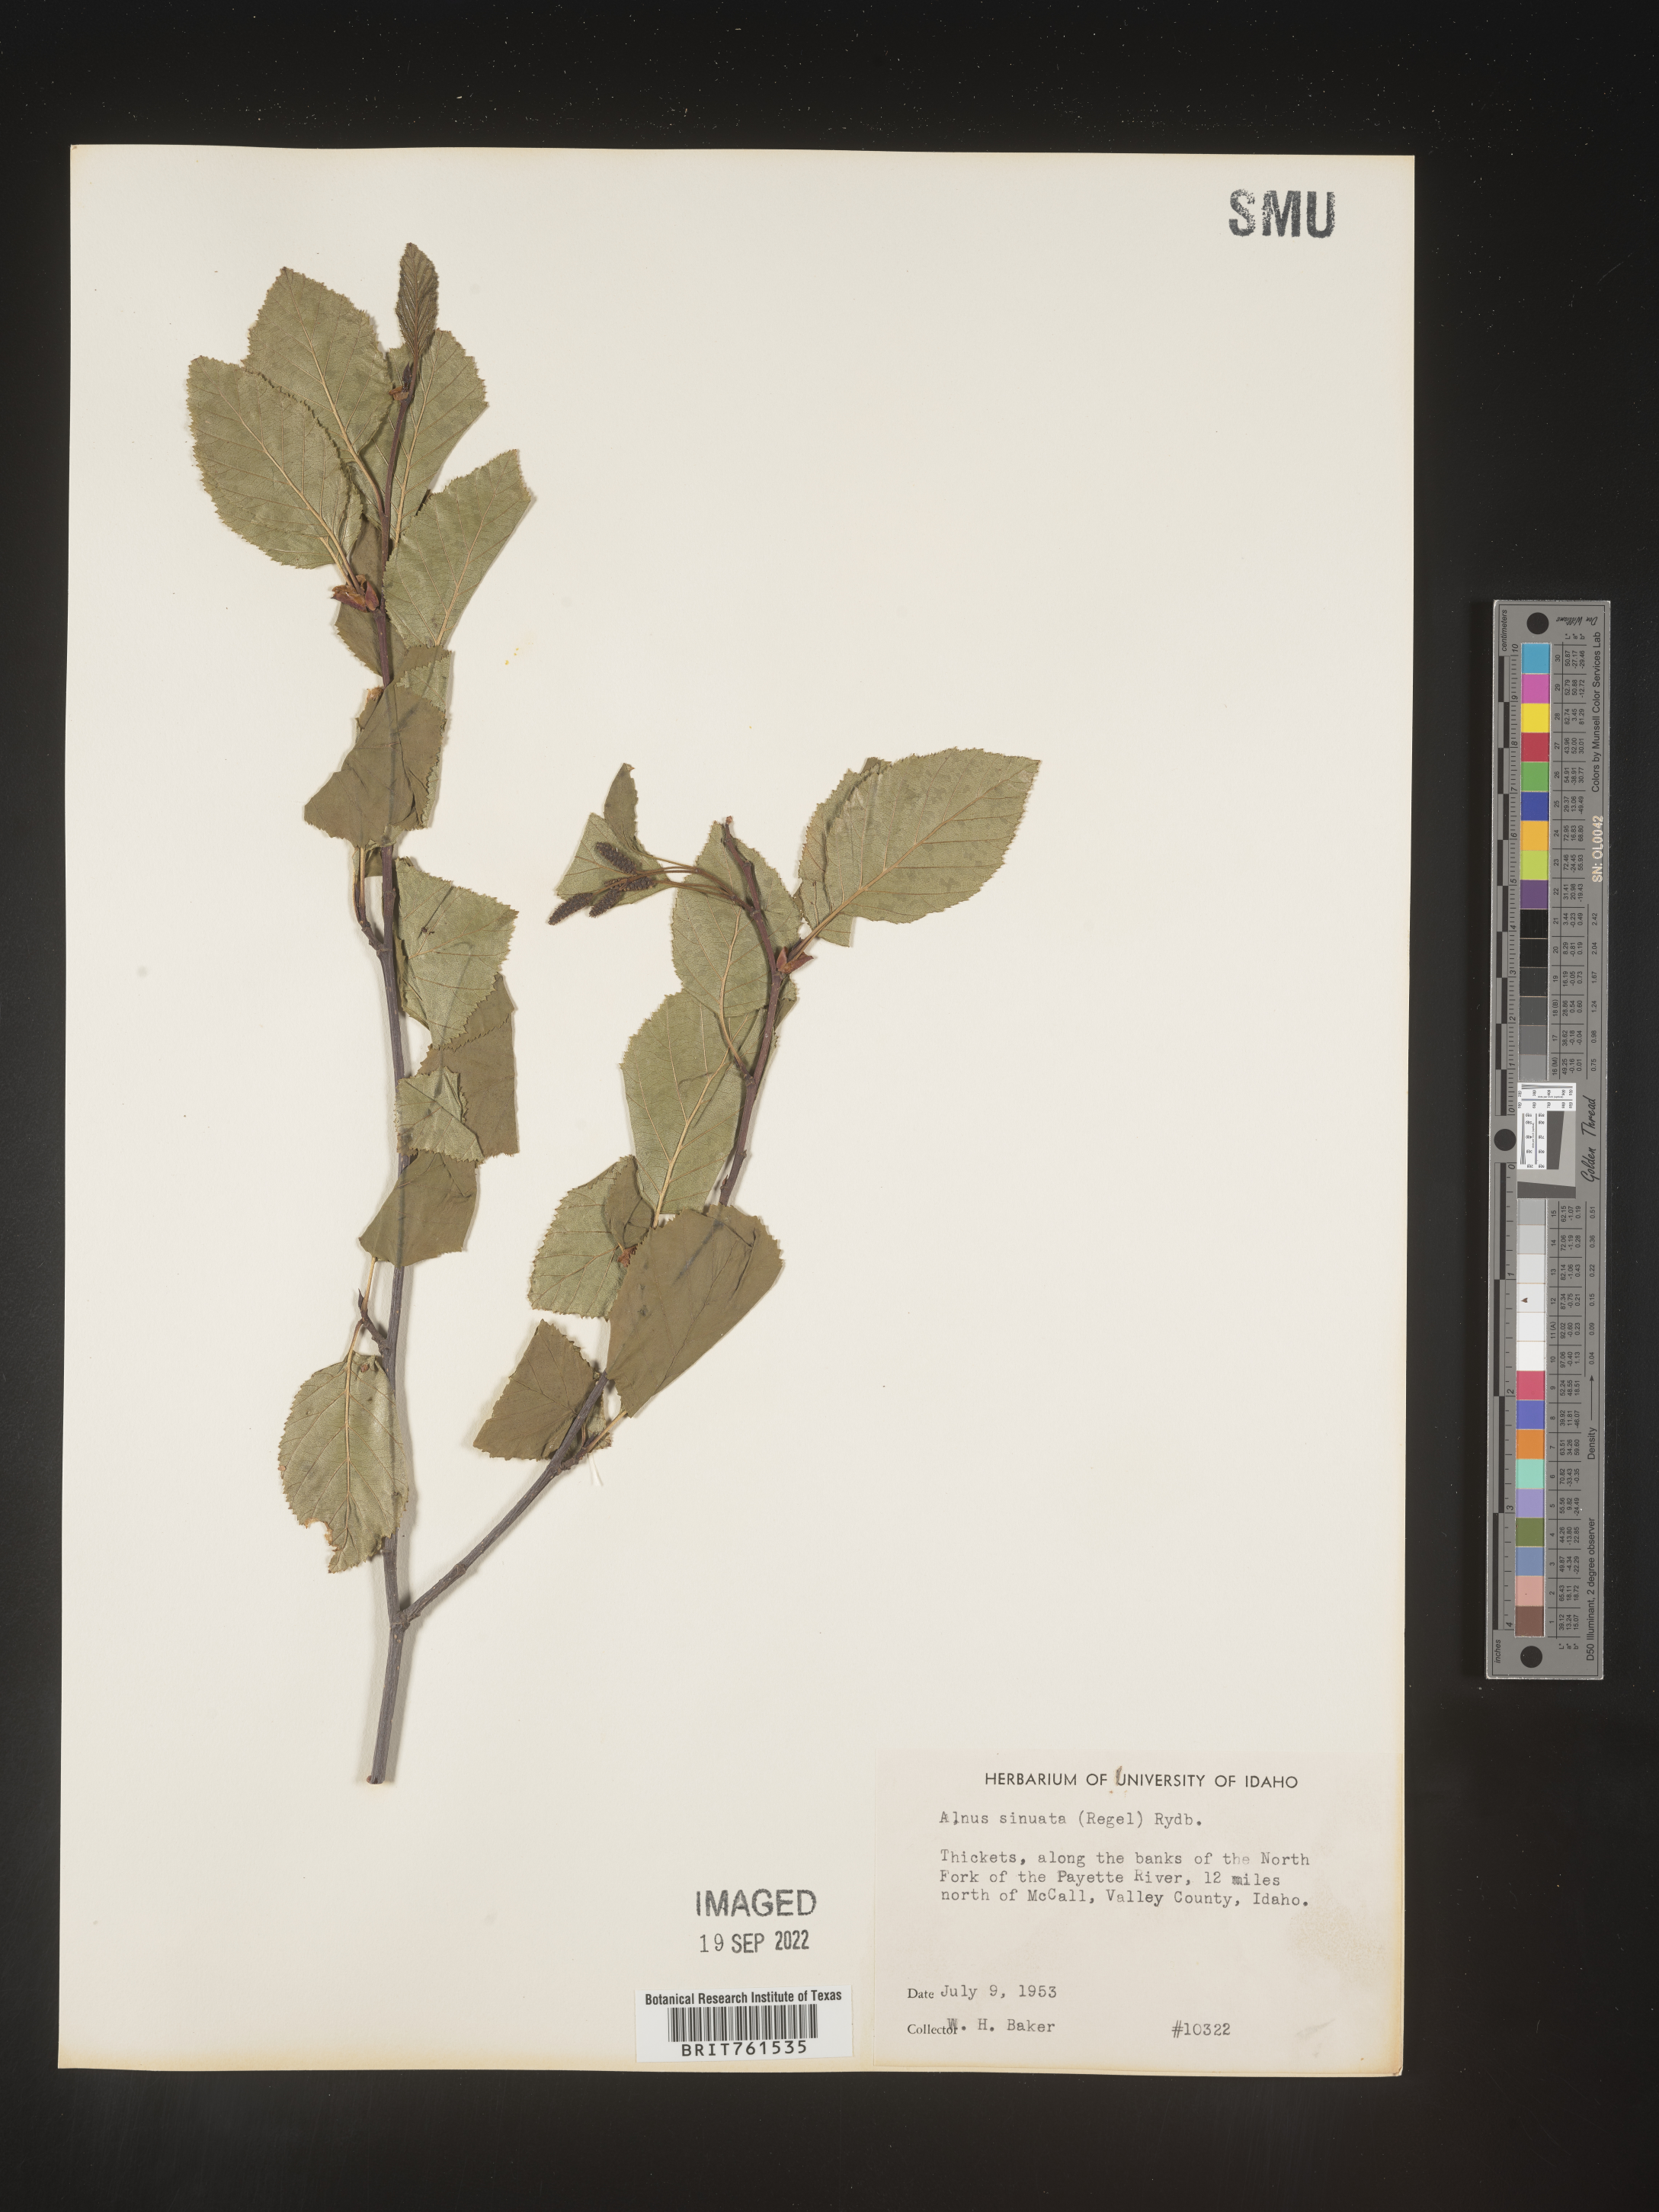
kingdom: Plantae
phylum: Tracheophyta
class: Magnoliopsida
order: Fagales
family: Betulaceae
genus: Alnus
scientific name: Alnus alnobetula
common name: Green alder
